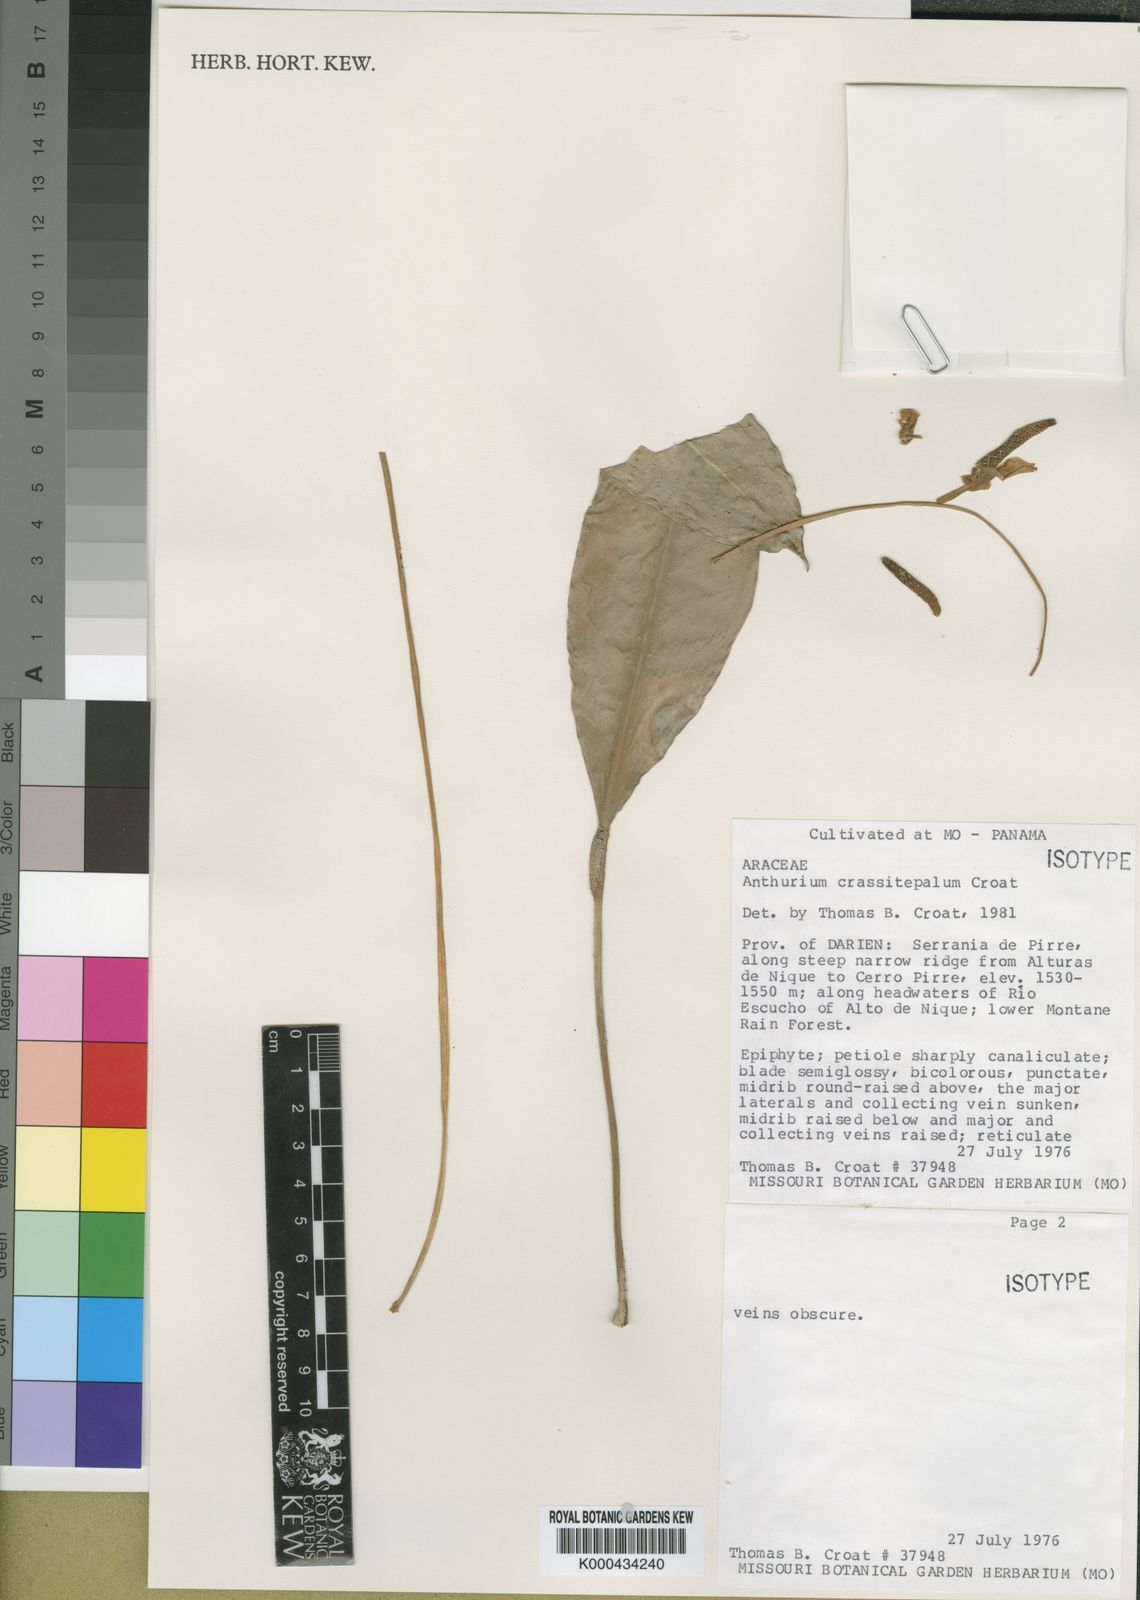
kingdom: Plantae
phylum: Tracheophyta
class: Liliopsida
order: Alismatales
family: Araceae
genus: Anthurium
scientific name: Anthurium crassitepalum
